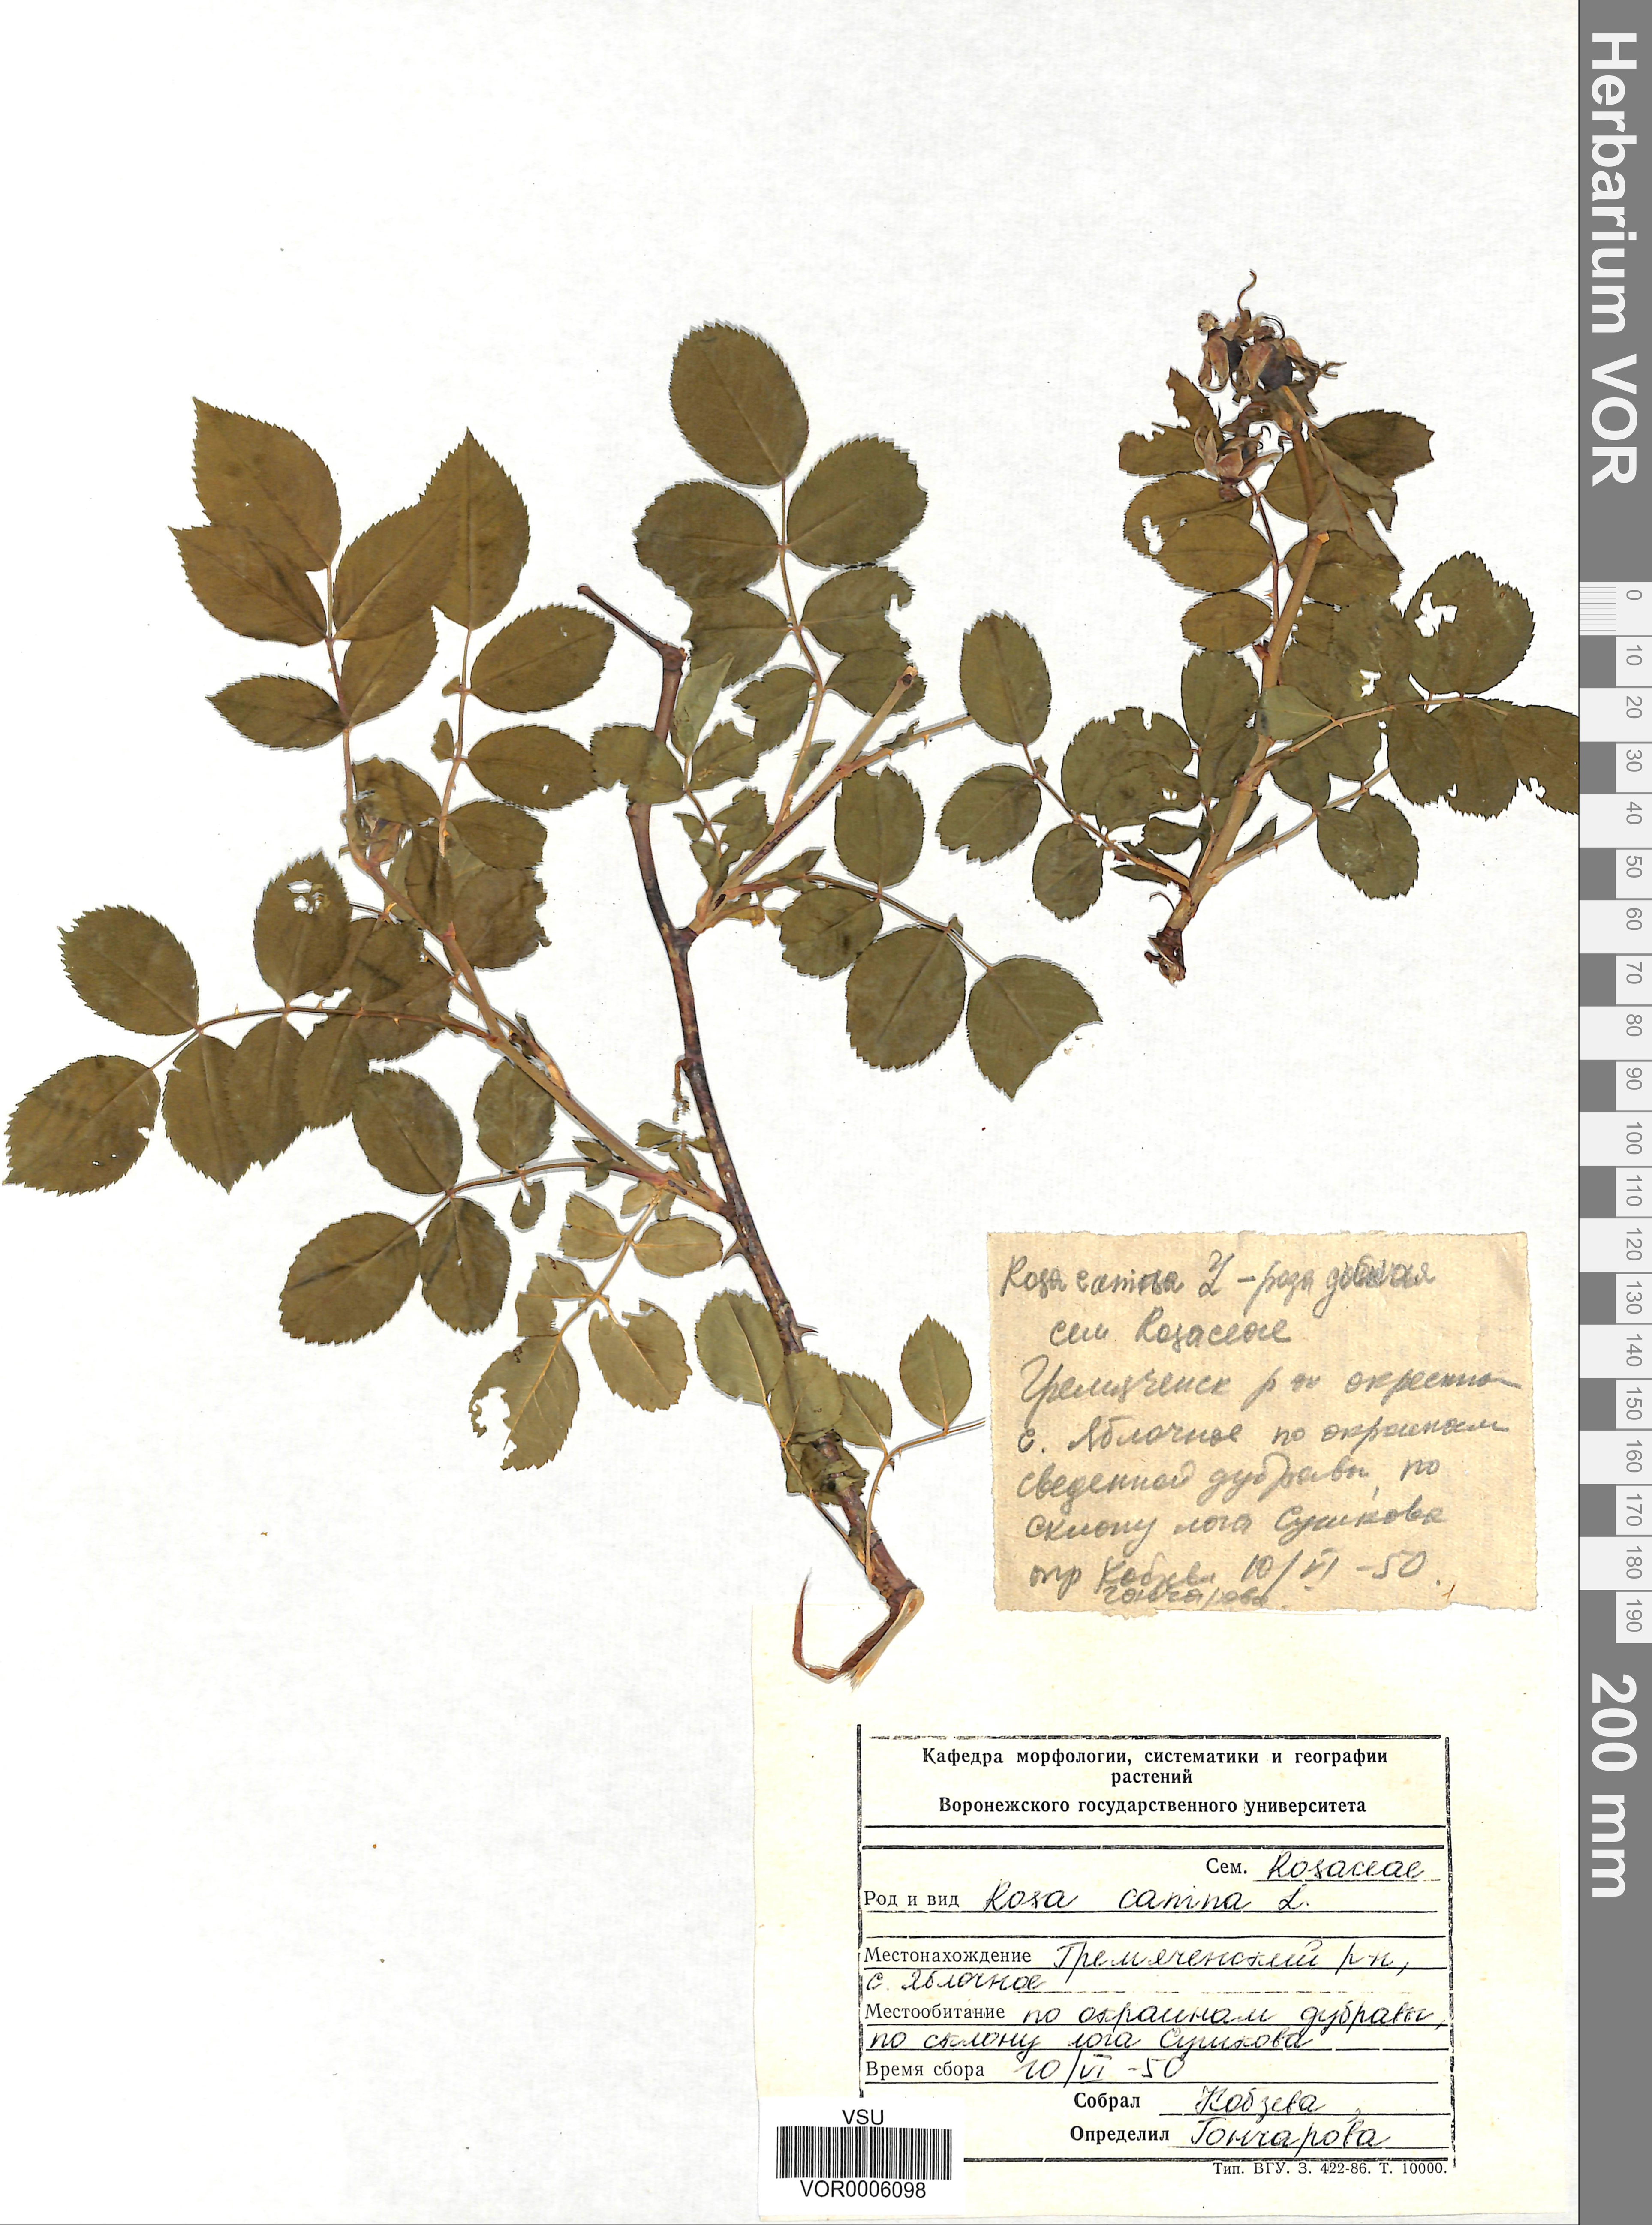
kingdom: Plantae
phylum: Tracheophyta
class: Magnoliopsida
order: Rosales
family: Rosaceae
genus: Rosa
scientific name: Rosa canina
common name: Dog rose
